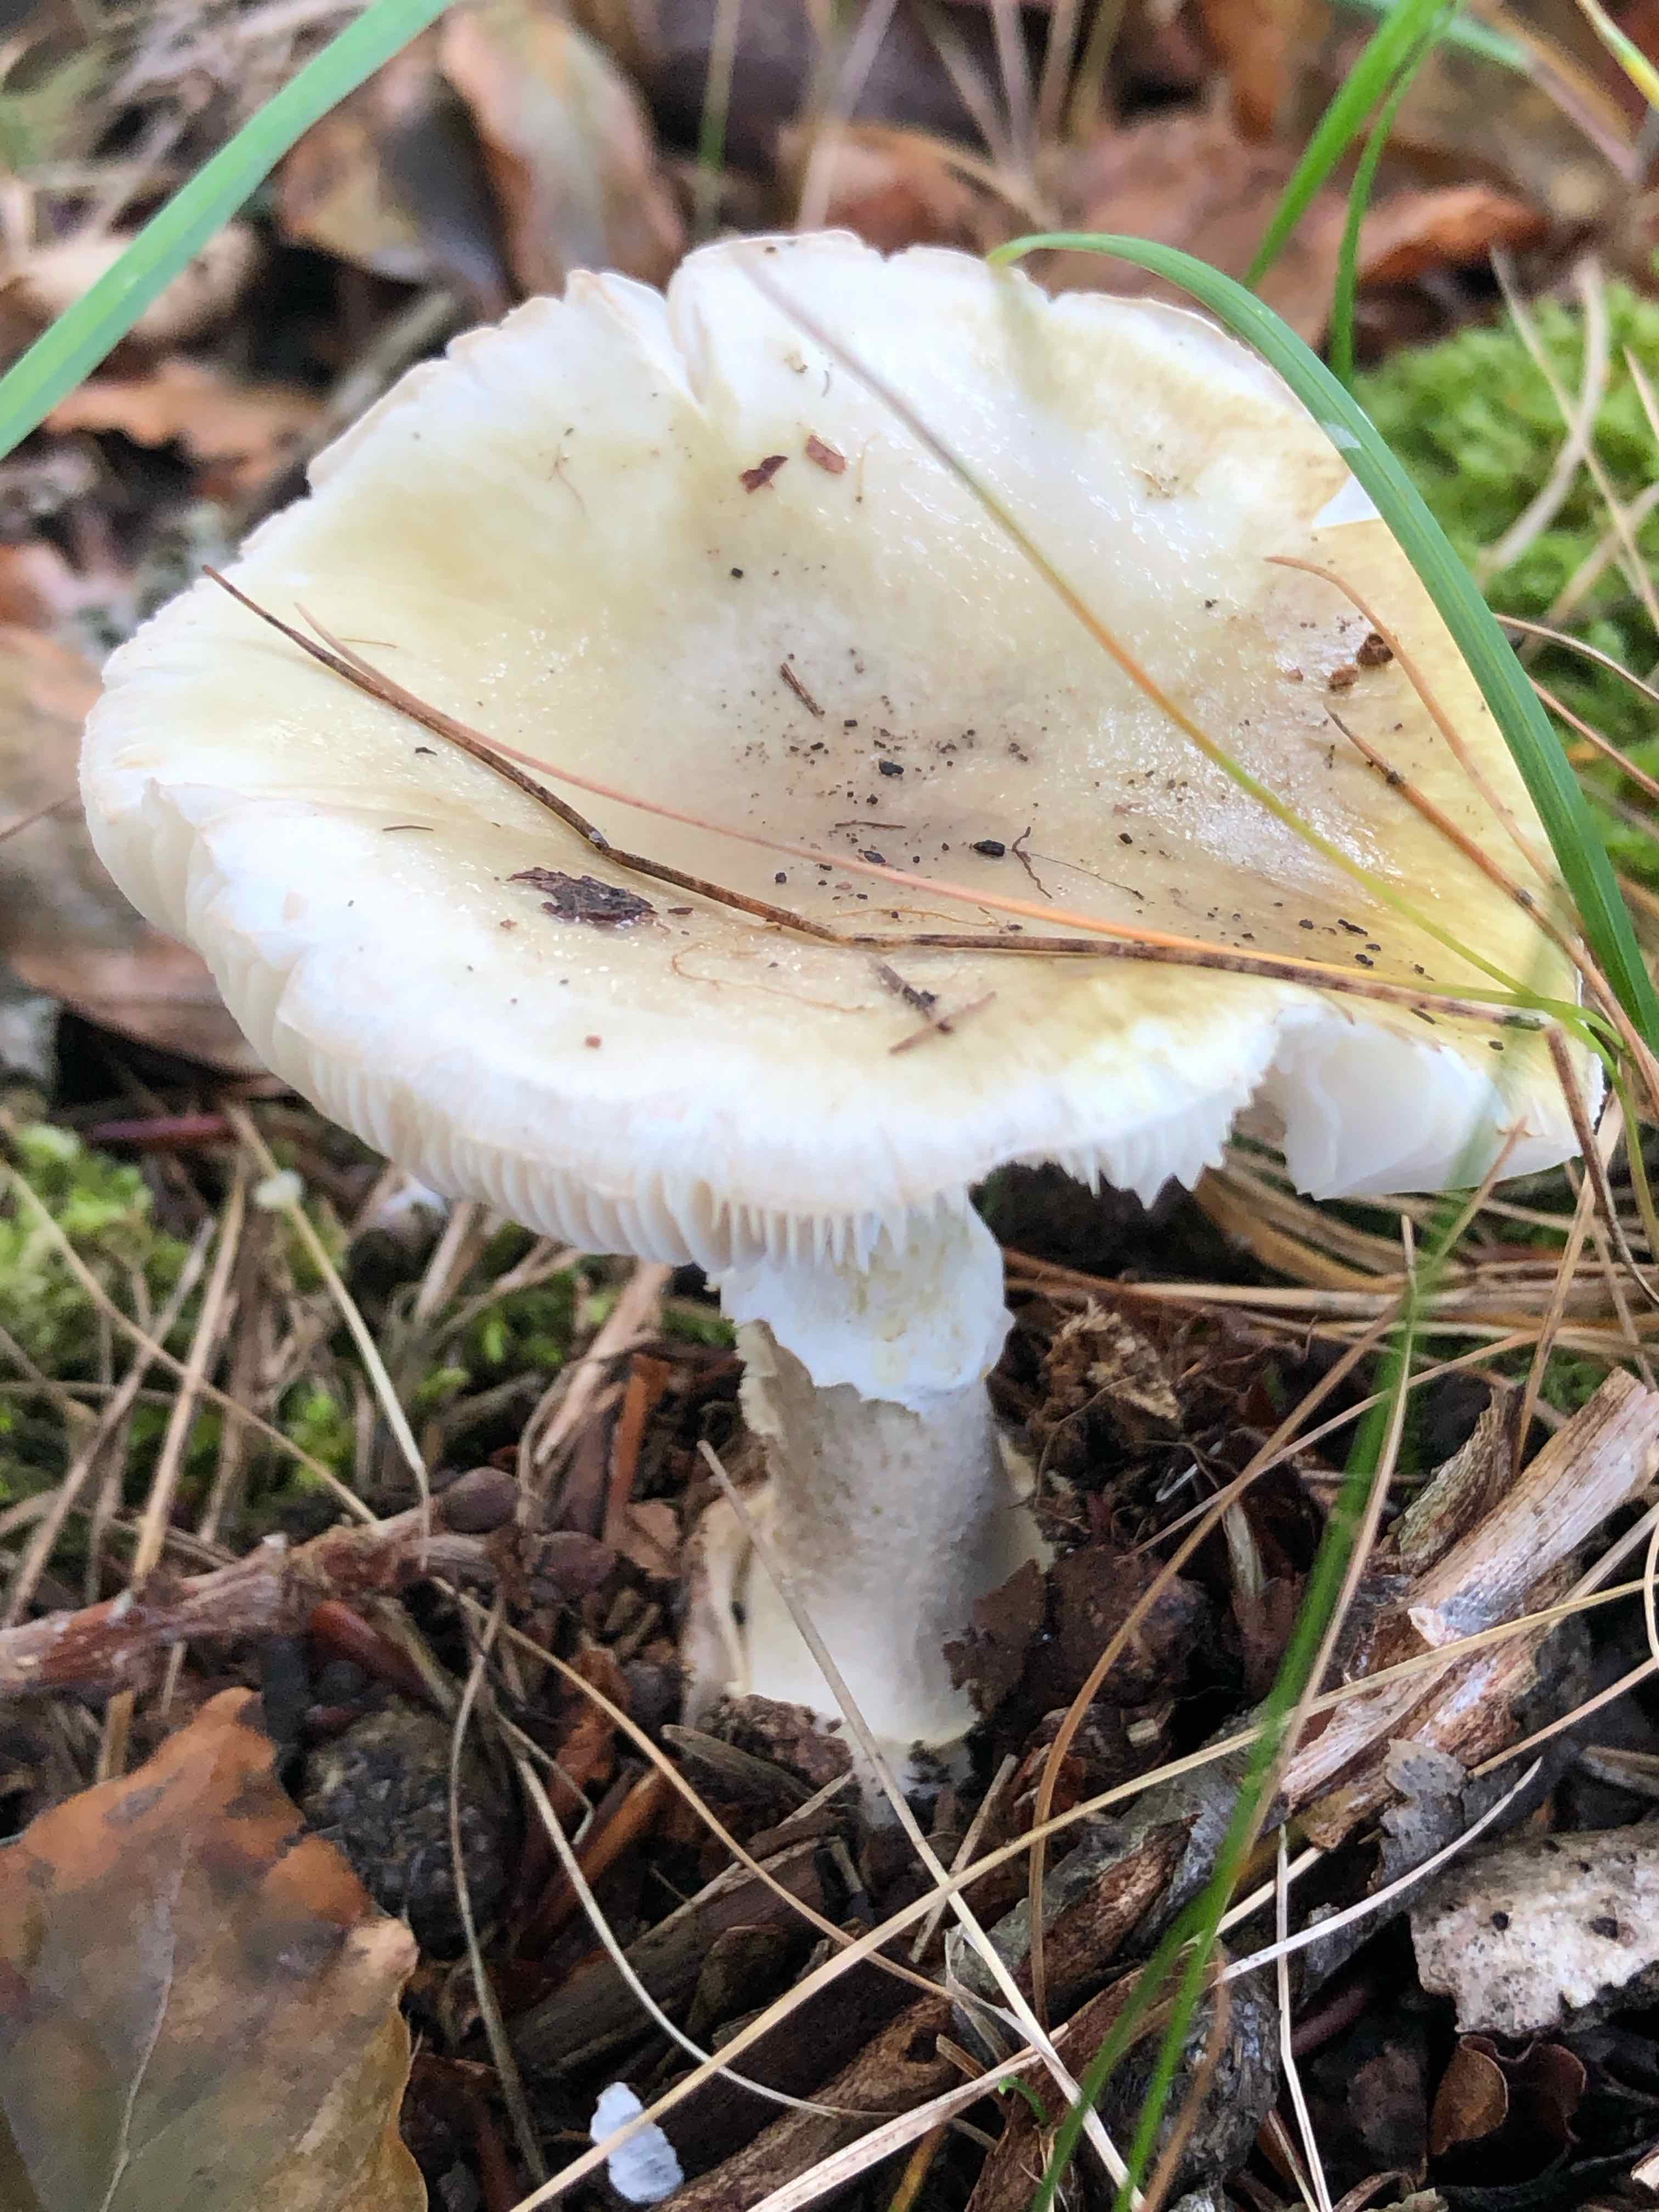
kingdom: Fungi
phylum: Basidiomycota
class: Agaricomycetes
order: Agaricales
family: Amanitaceae
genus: Amanita
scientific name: Amanita phalloides
